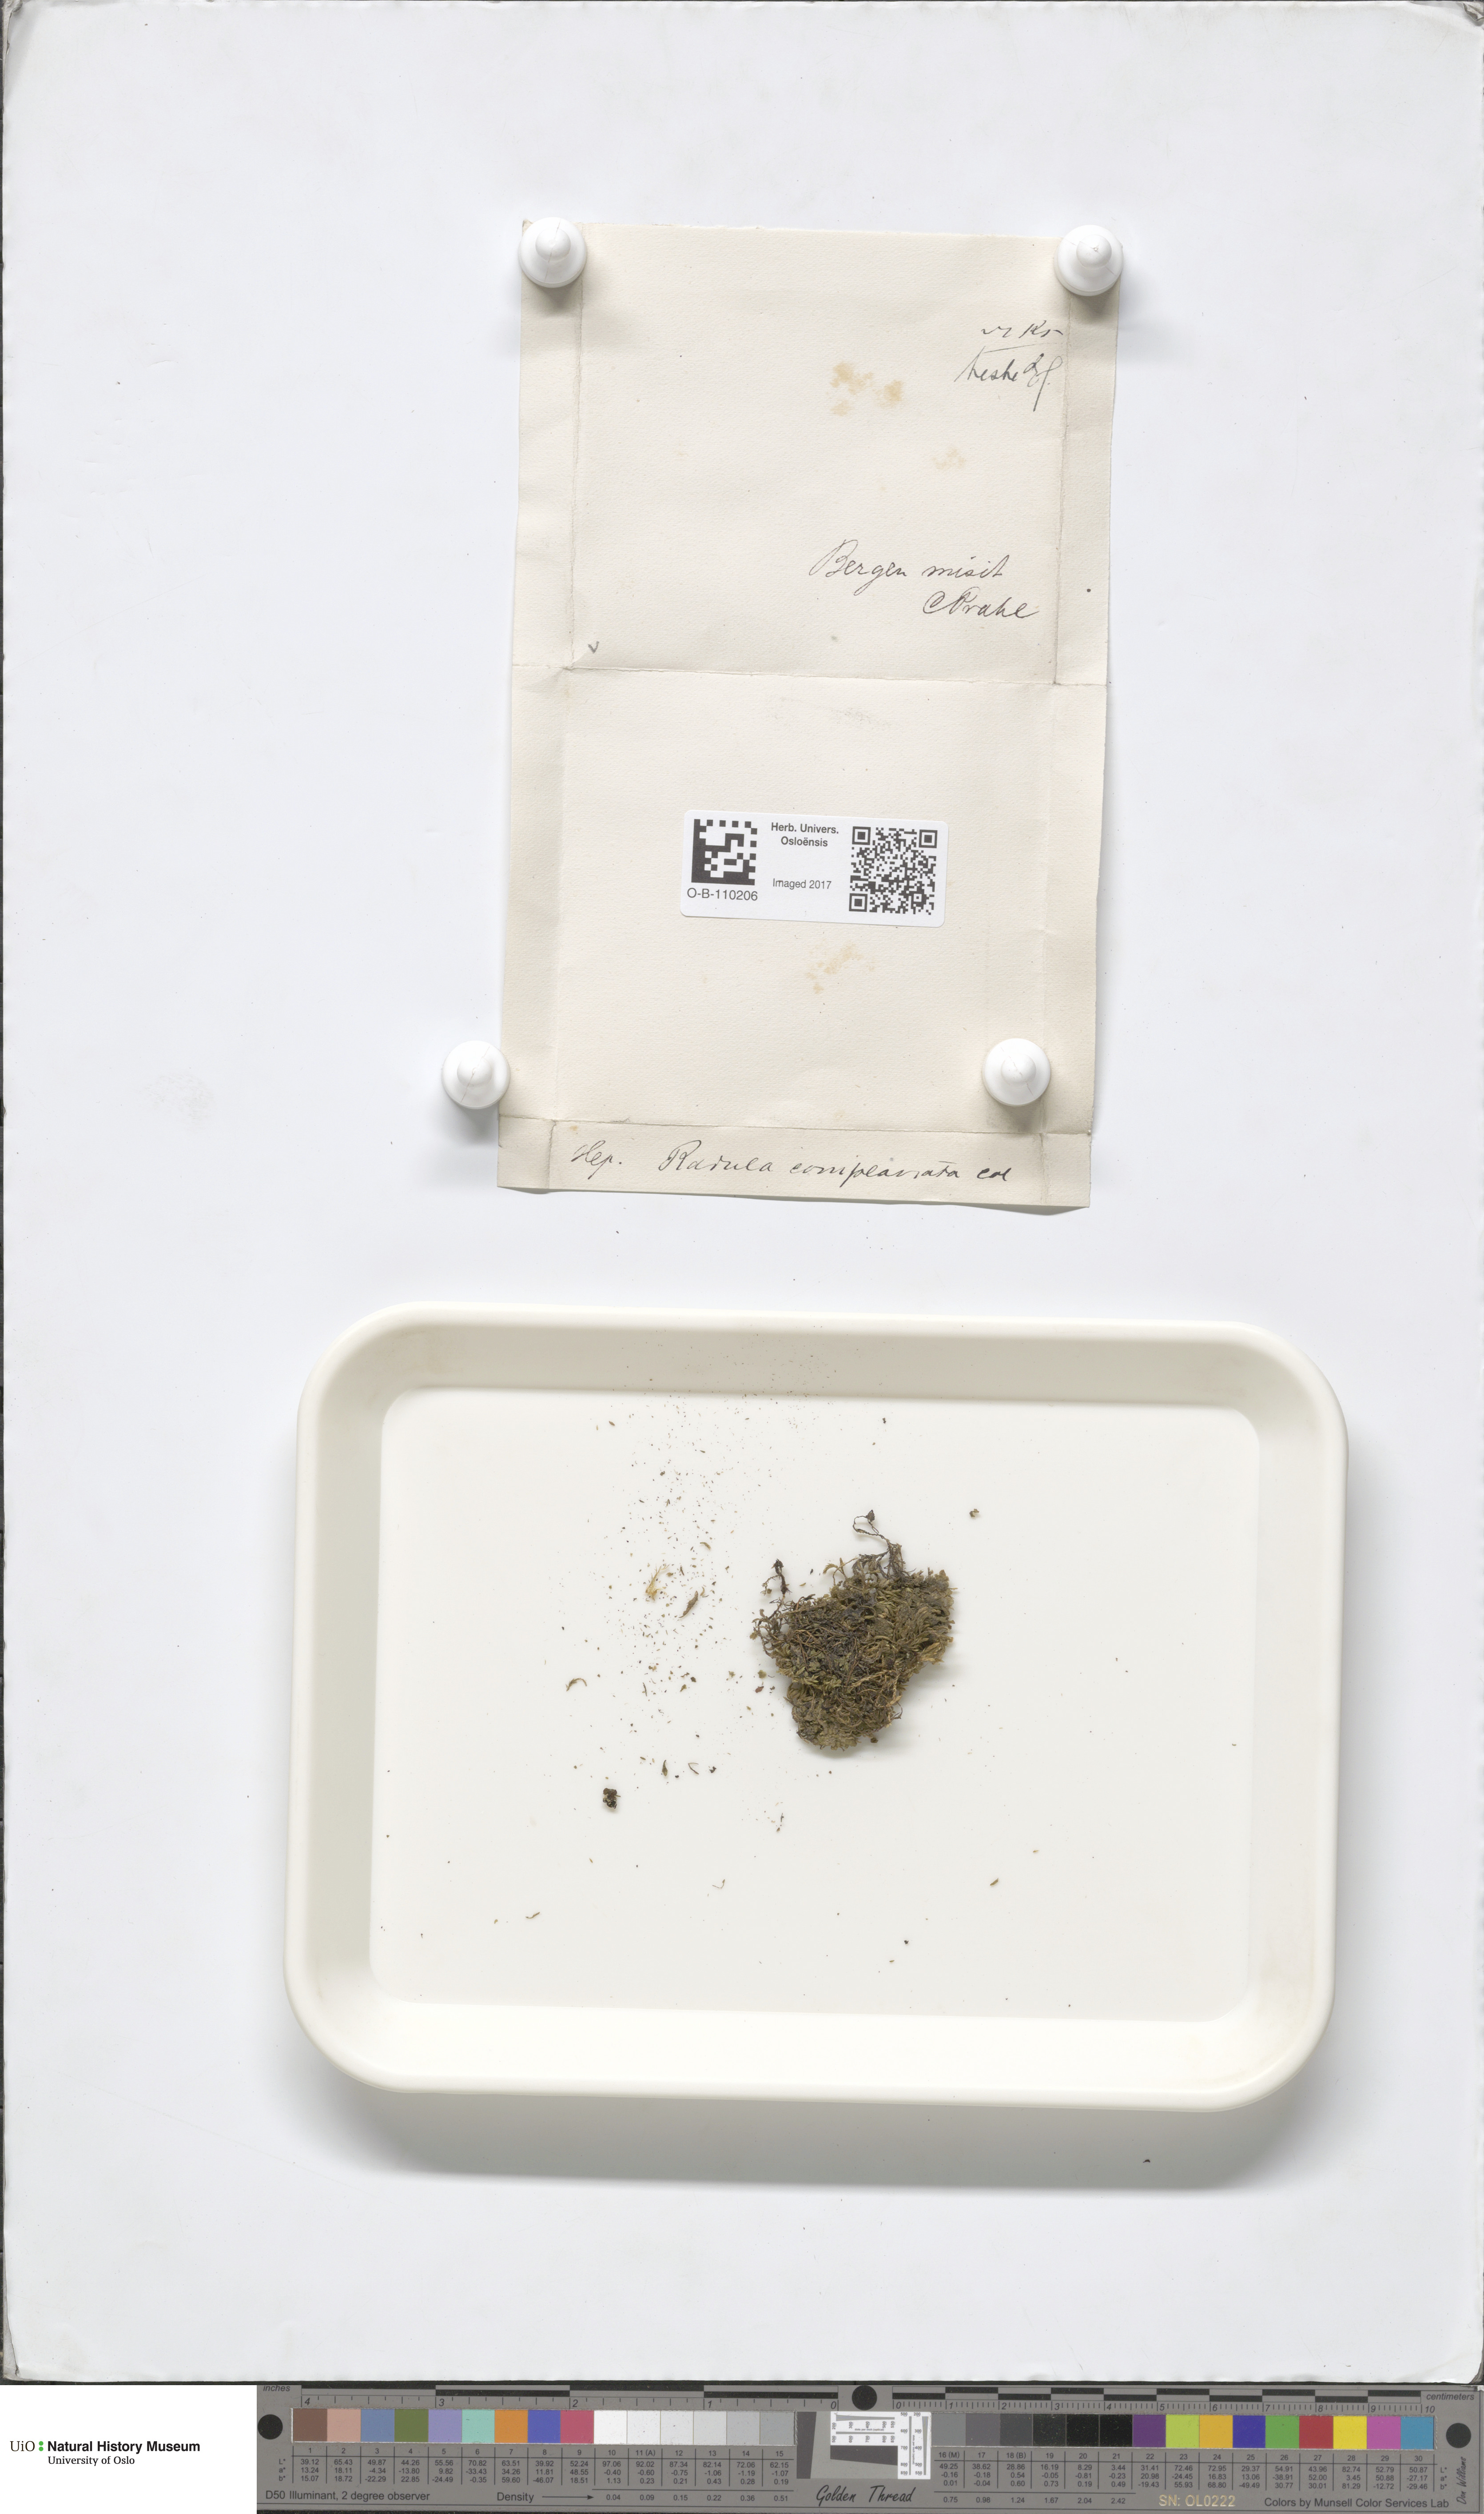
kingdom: Plantae
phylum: Marchantiophyta
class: Jungermanniopsida
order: Porellales
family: Radulaceae
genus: Radula
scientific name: Radula complanata
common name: Flat-leaved scalewort
